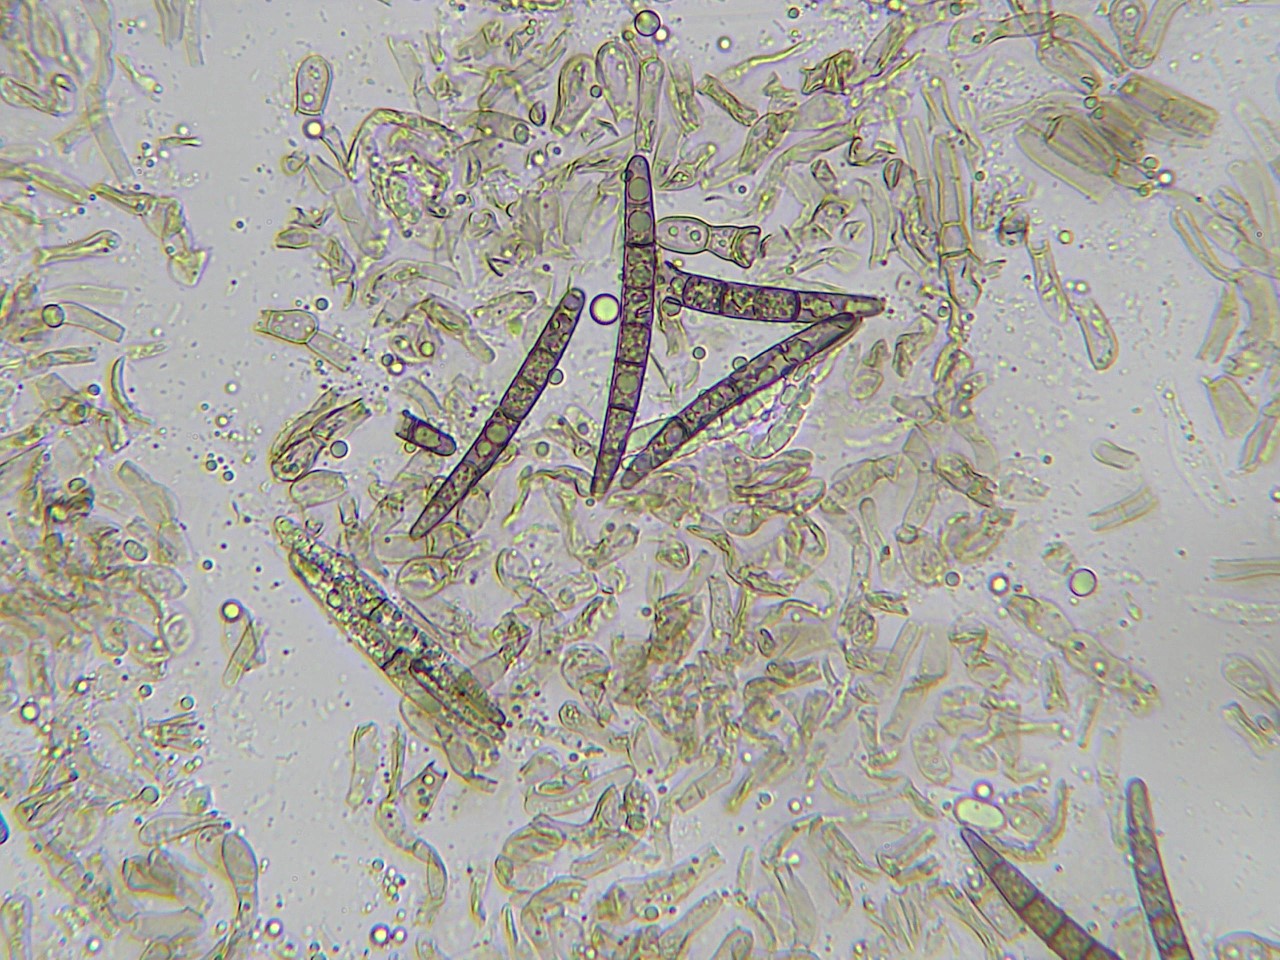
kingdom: Fungi
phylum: Ascomycota
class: Geoglossomycetes
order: Geoglossales
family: Geoglossaceae
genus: Geoglossum
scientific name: Geoglossum
